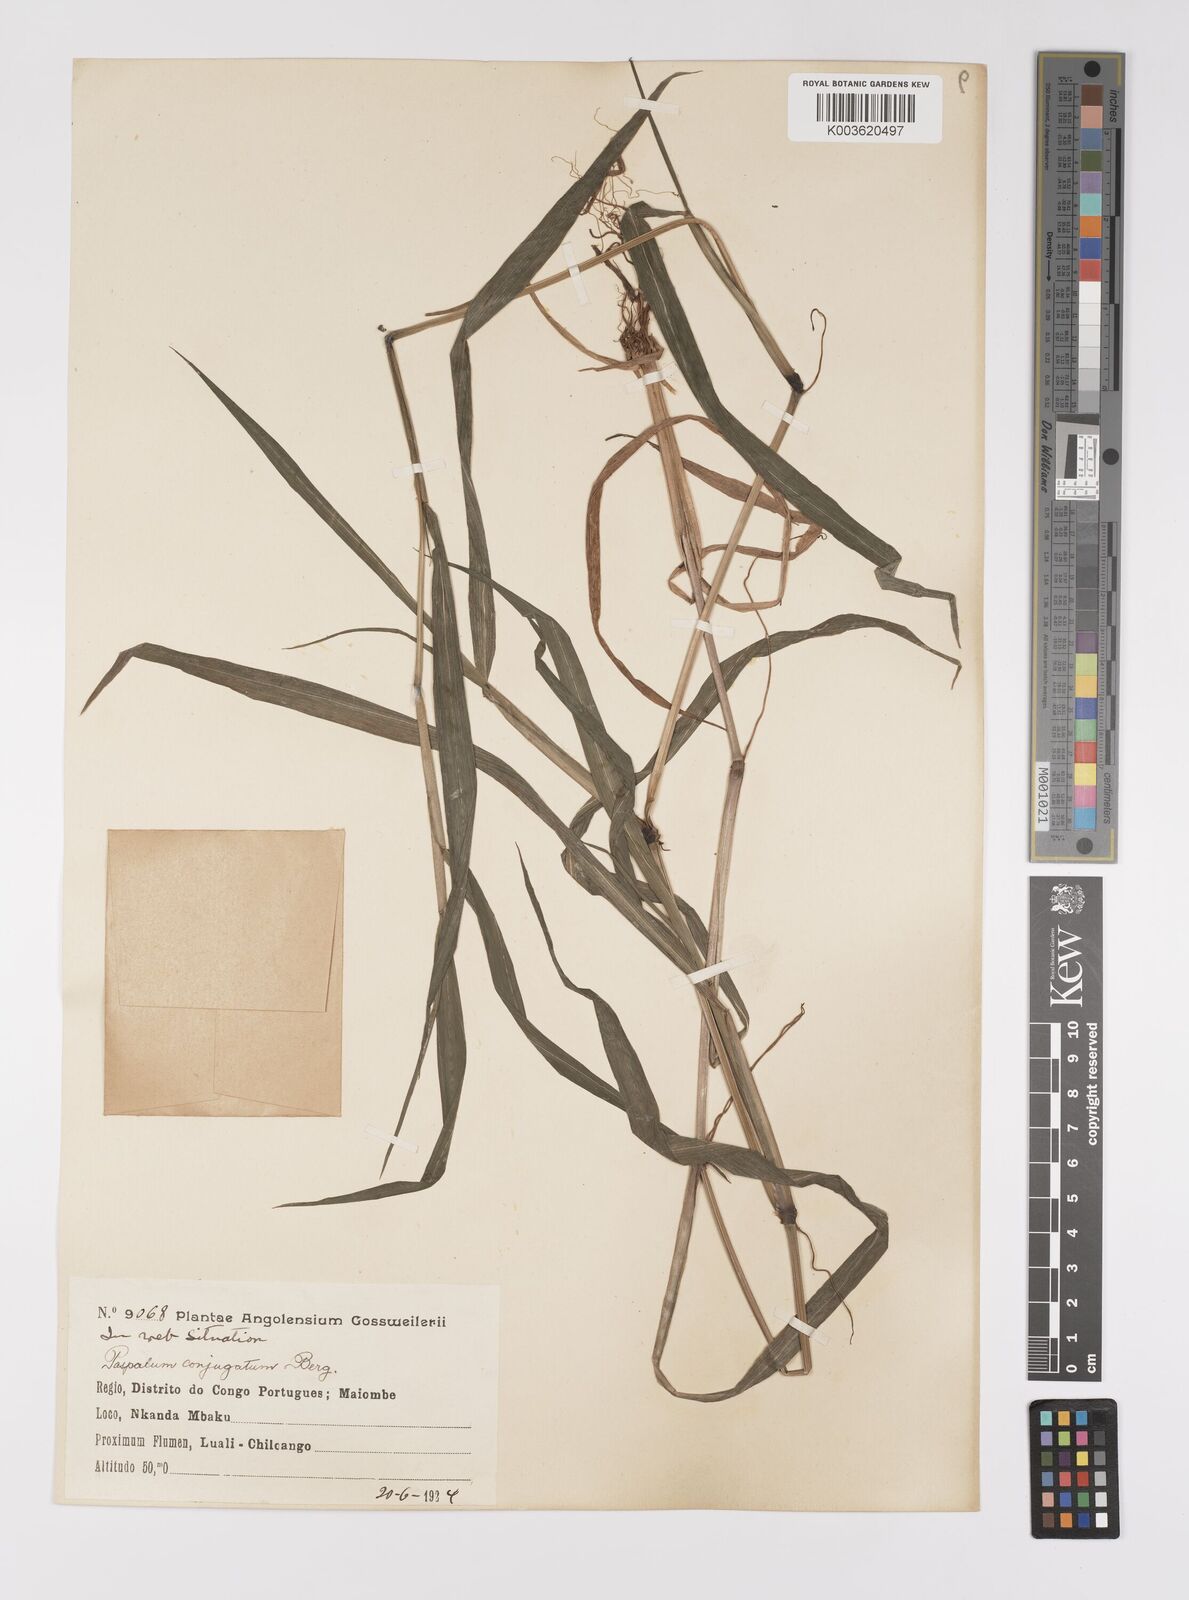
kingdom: Plantae
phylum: Tracheophyta
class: Liliopsida
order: Poales
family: Poaceae
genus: Paspalum
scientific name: Paspalum conjugatum
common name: Hilograss
